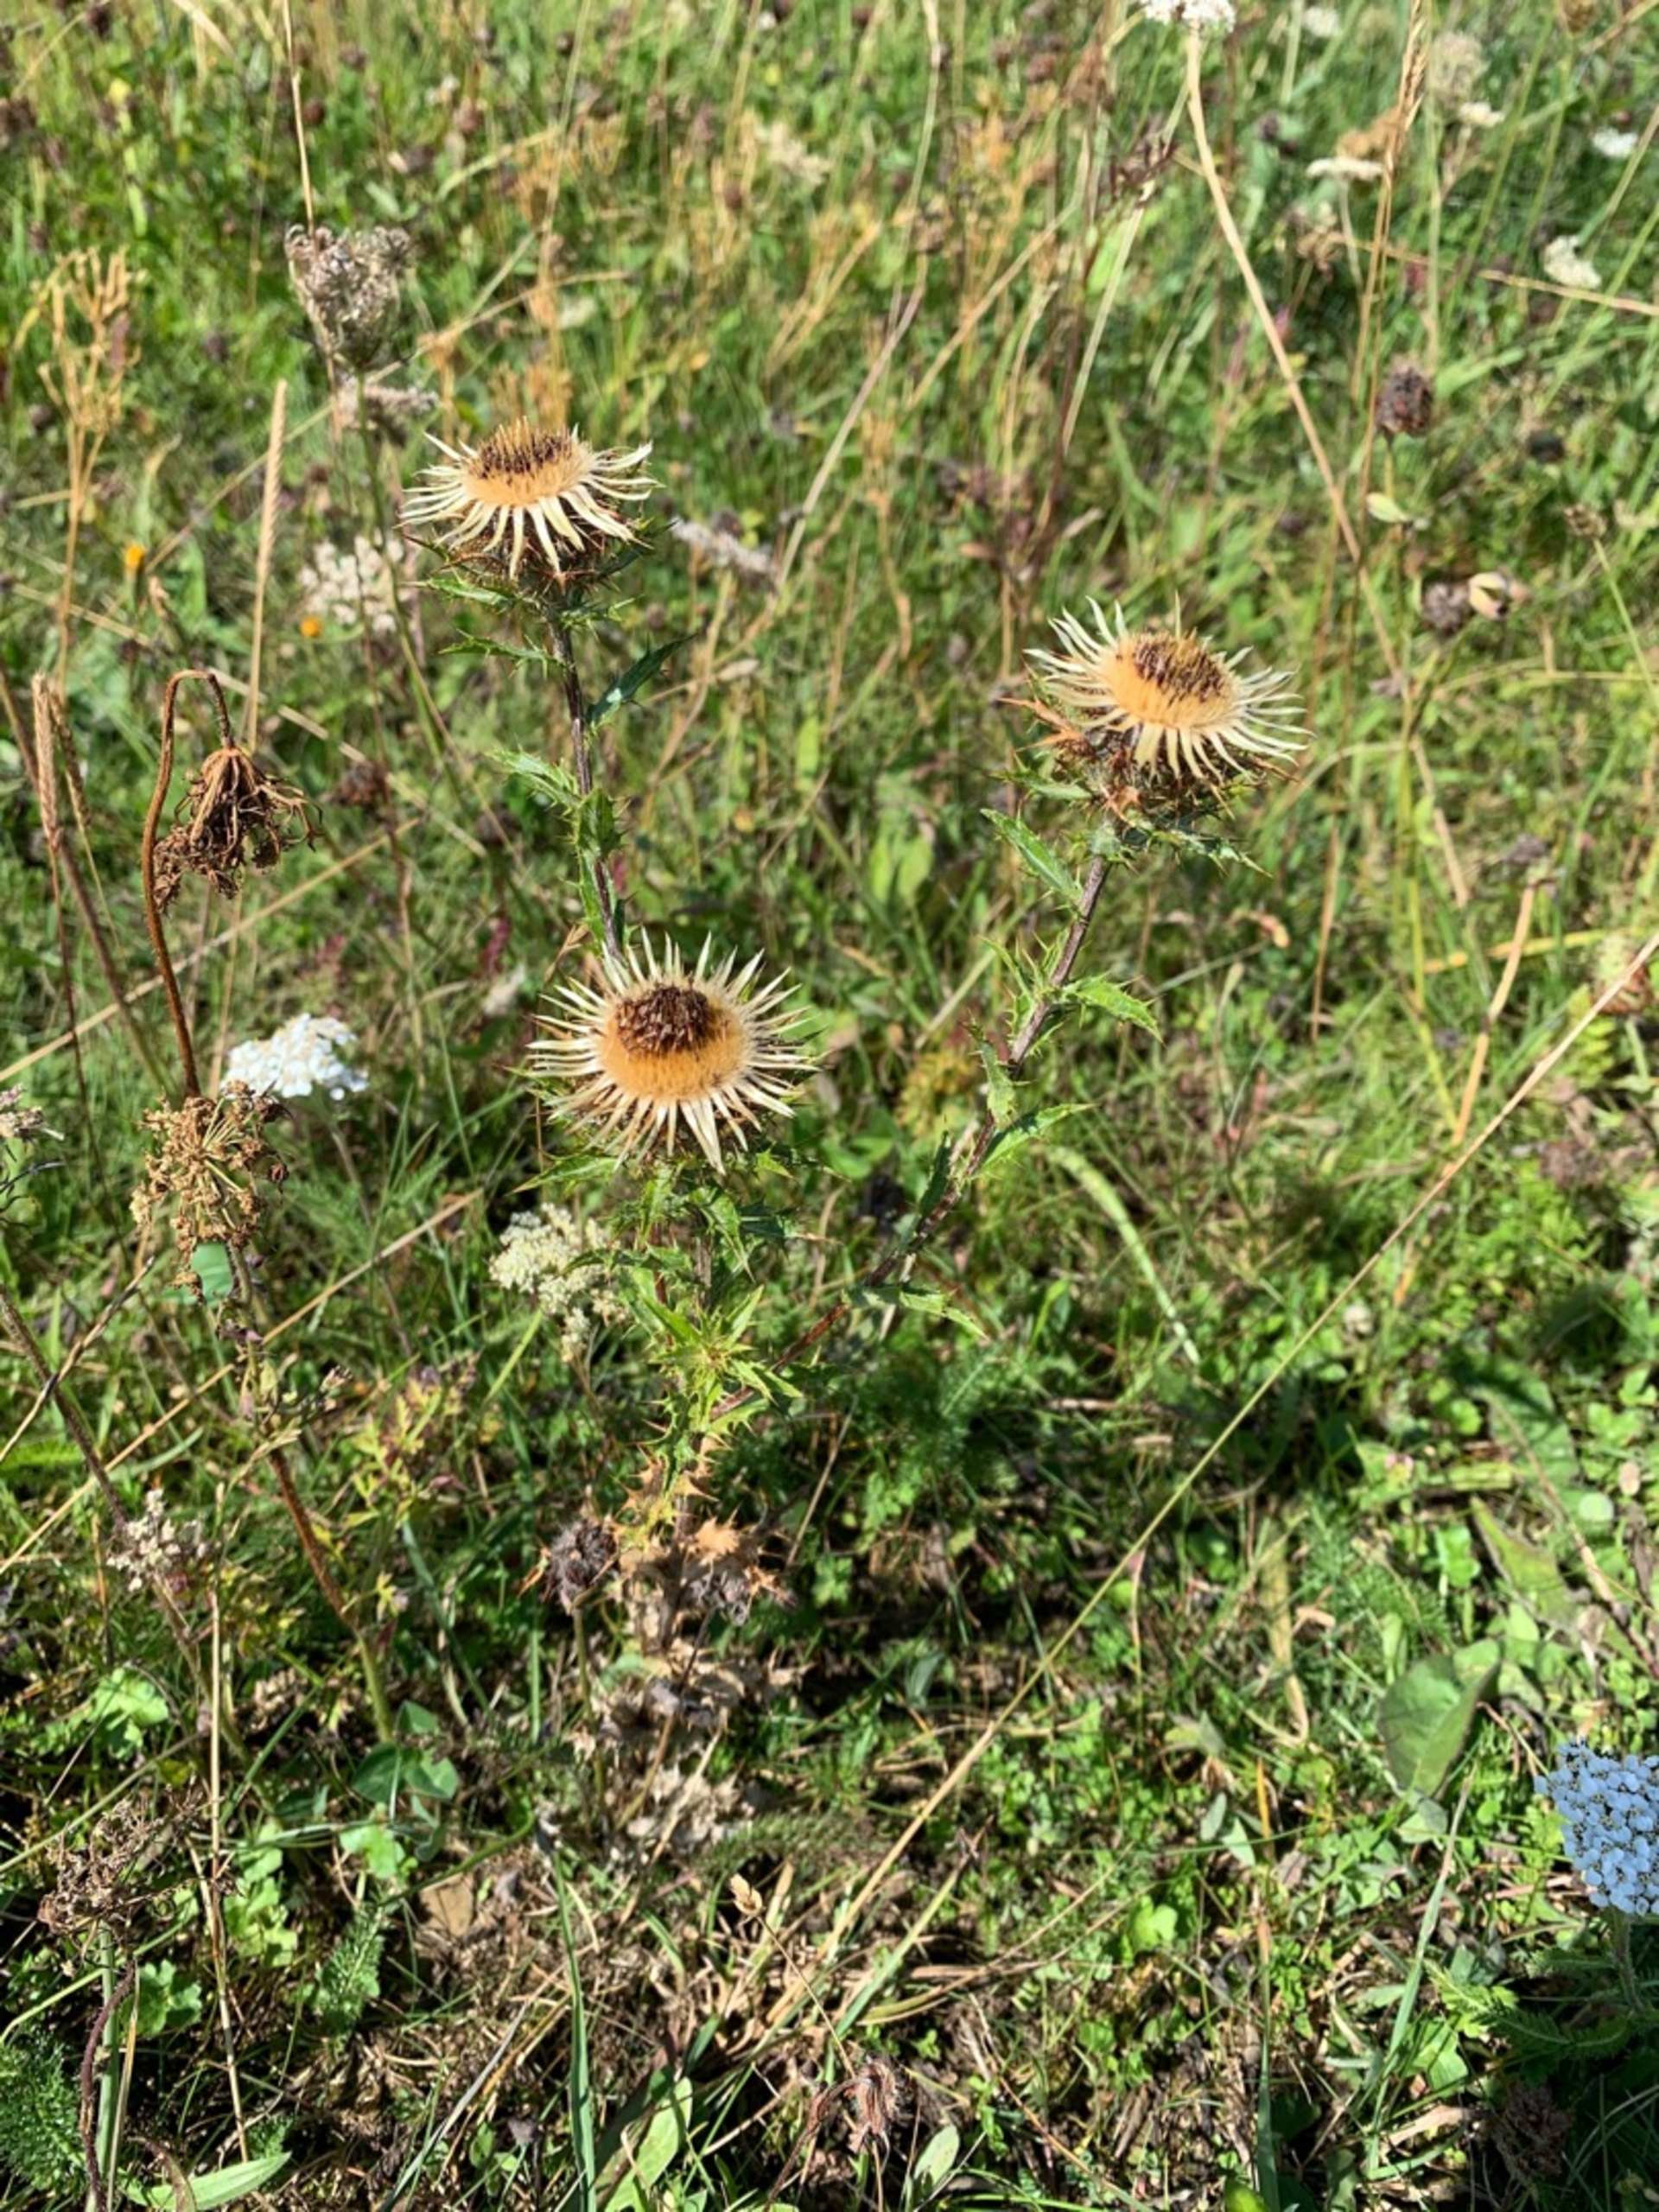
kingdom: Plantae
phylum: Tracheophyta
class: Magnoliopsida
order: Asterales
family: Asteraceae
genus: Carlina
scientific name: Carlina vulgaris
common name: Bakketidsel
